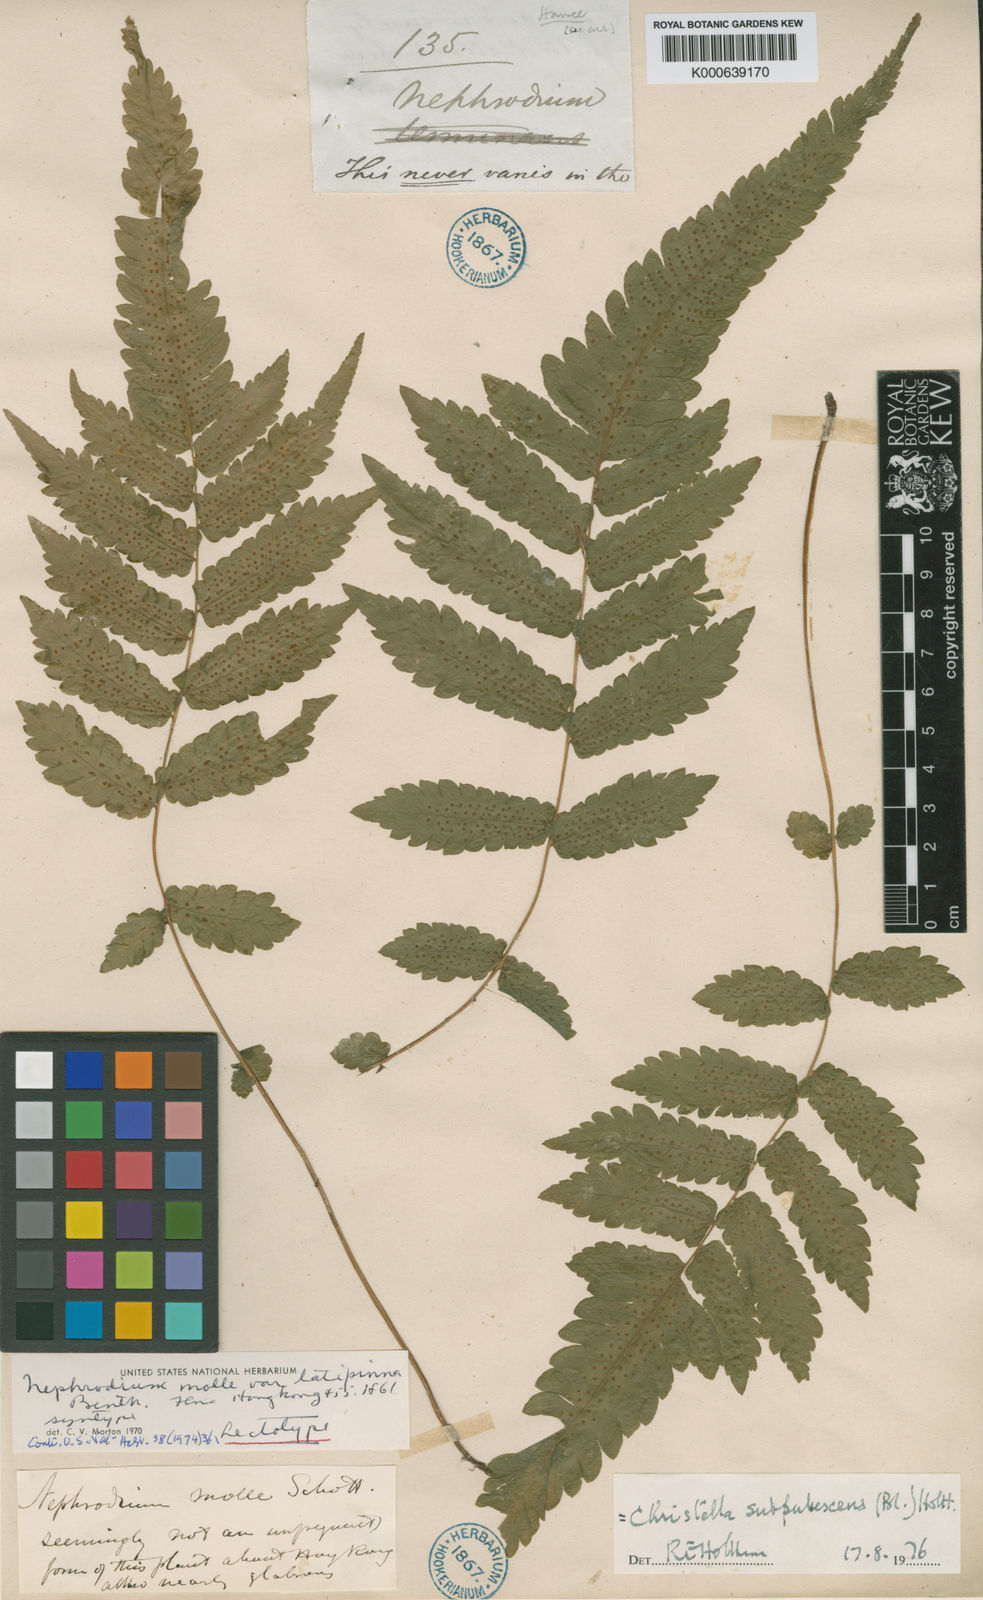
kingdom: Plantae
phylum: Tracheophyta
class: Polypodiopsida
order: Polypodiales
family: Thelypteridaceae
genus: Christella
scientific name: Christella subpubescens
